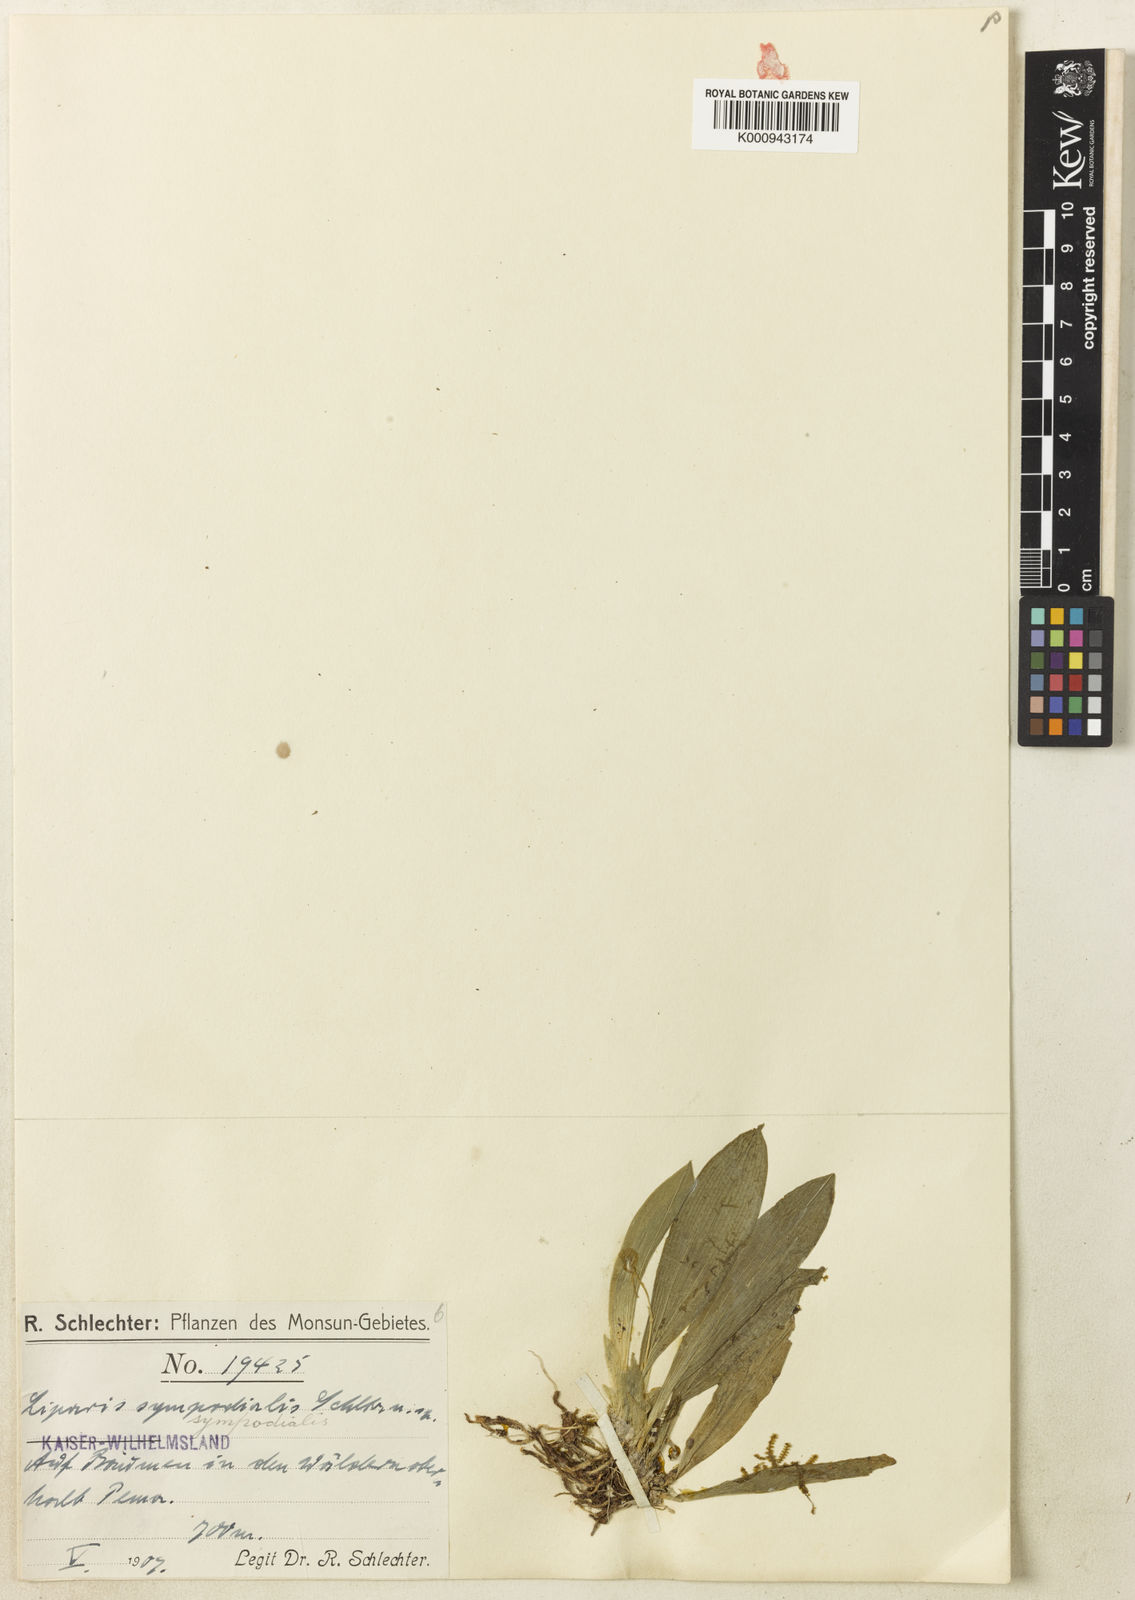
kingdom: Plantae
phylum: Tracheophyta
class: Liliopsida
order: Asparagales
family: Orchidaceae
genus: Liparis
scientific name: Liparis sympodialis
